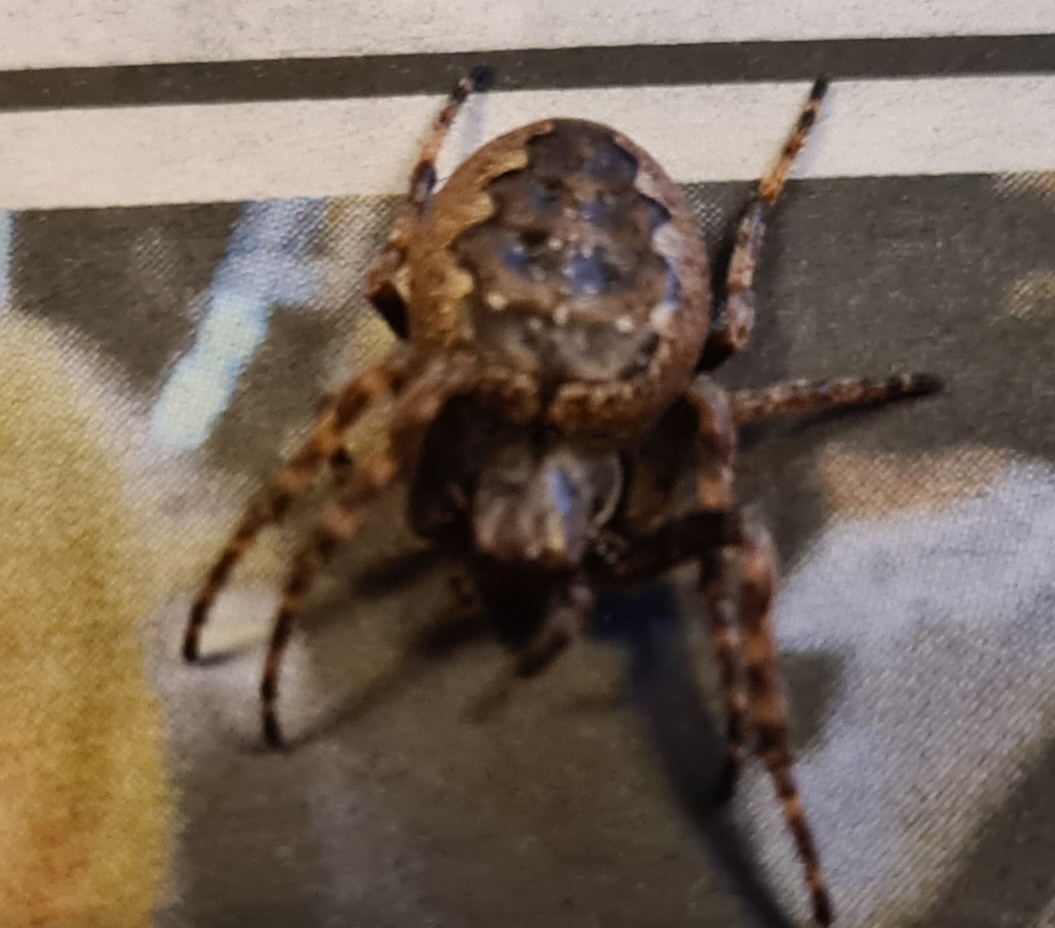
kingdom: Animalia
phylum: Arthropoda
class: Arachnida
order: Araneae
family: Araneidae
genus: Nuctenea
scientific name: Nuctenea umbratica
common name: Flad hjulspinder
